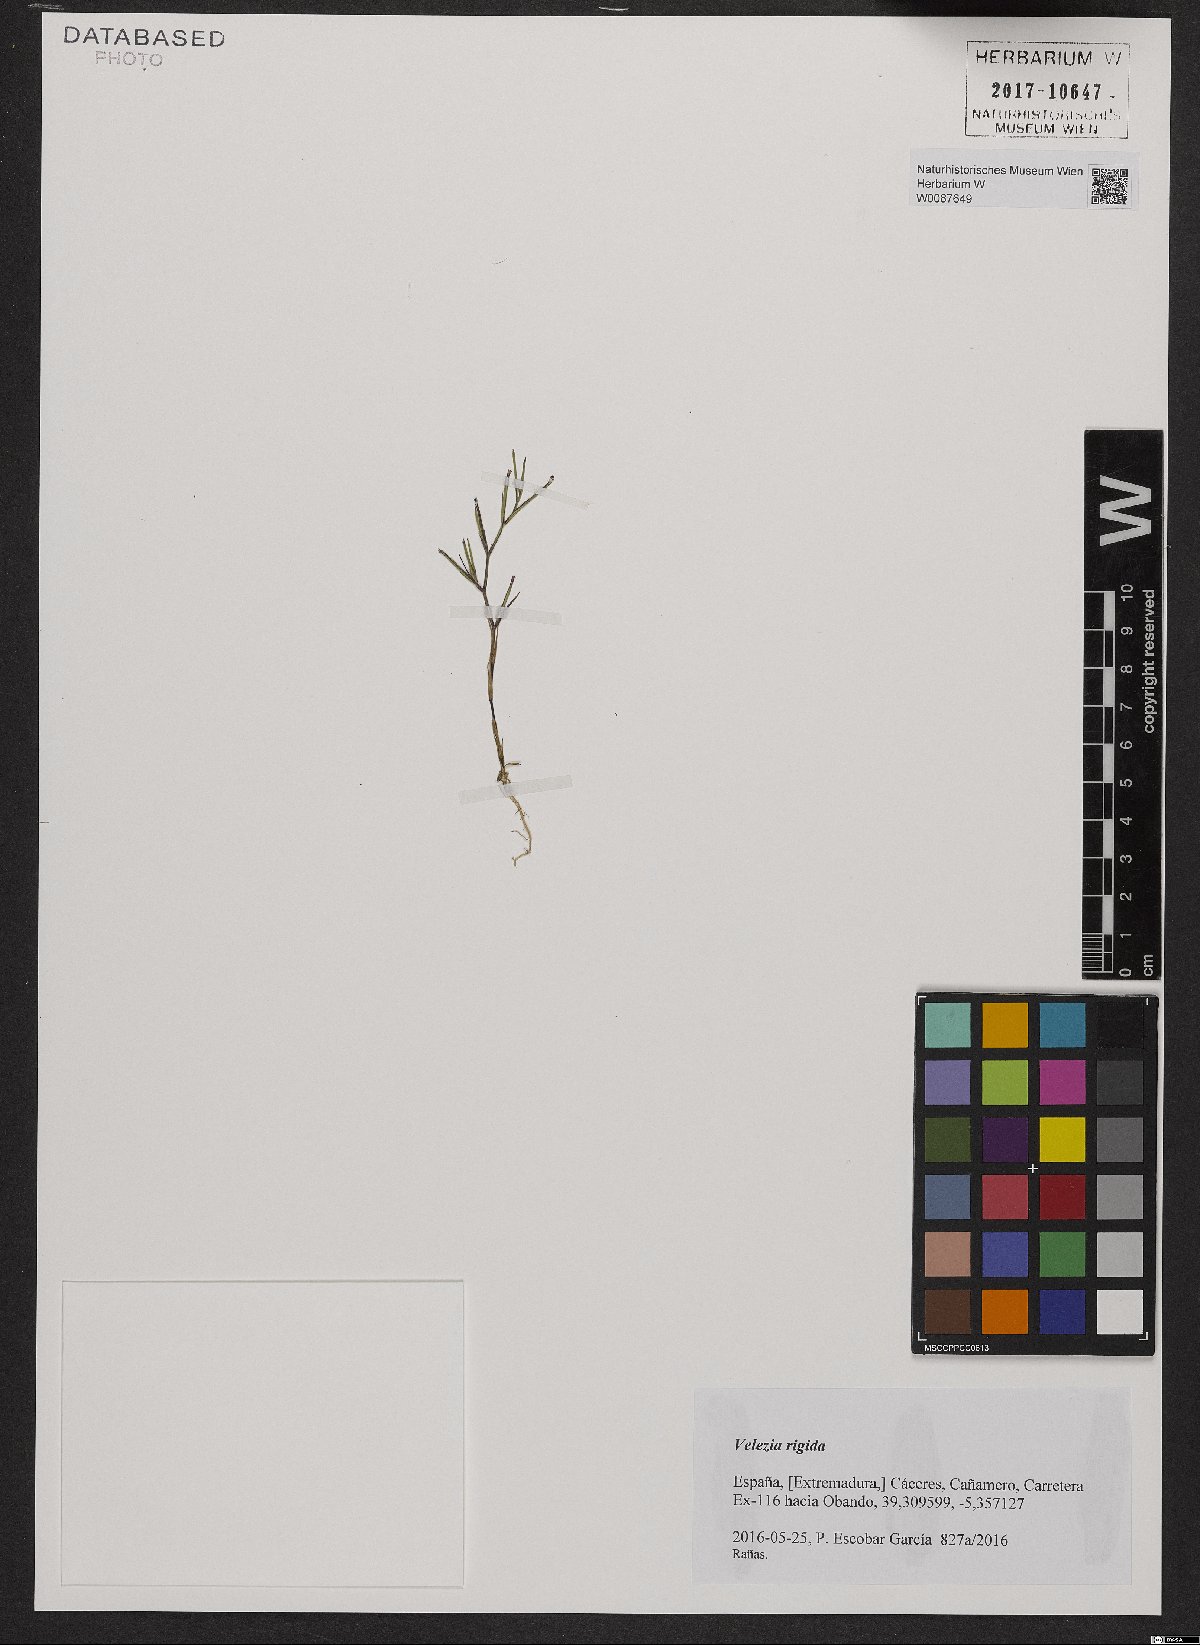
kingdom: Plantae
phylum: Tracheophyta
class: Magnoliopsida
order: Caryophyllales
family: Caryophyllaceae
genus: Dianthus
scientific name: Dianthus nudiflorus
